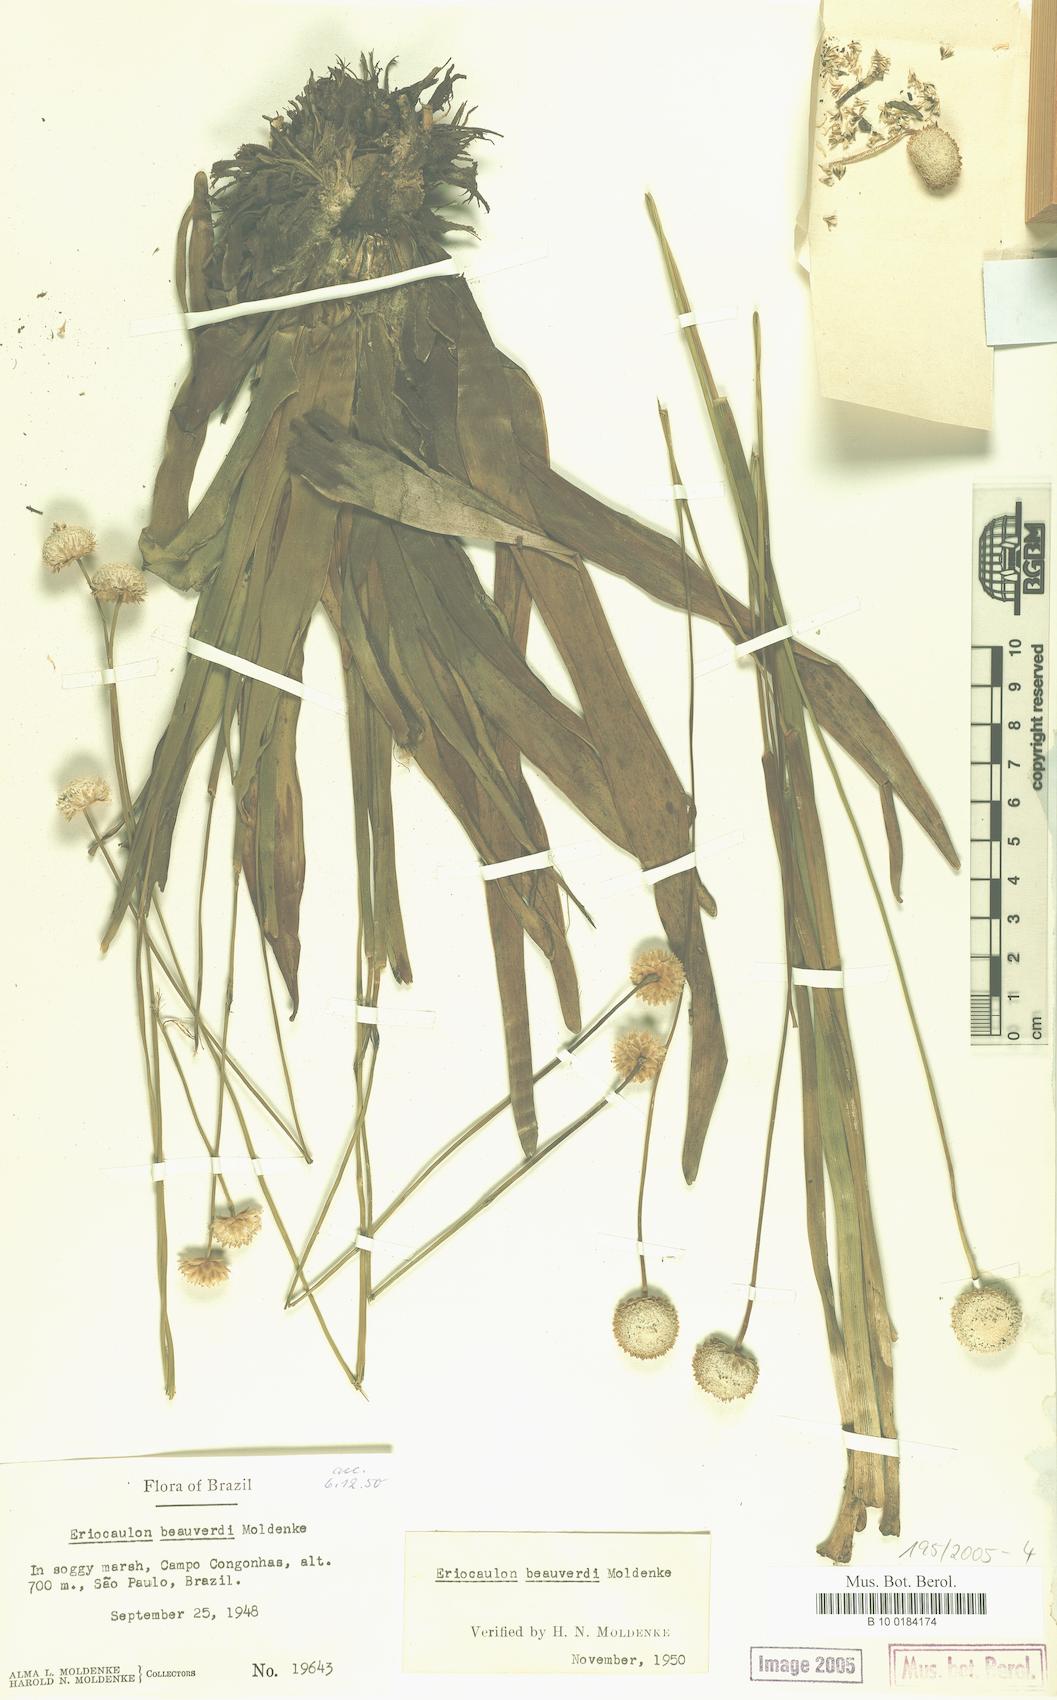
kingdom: Plantae
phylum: Tracheophyta
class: Liliopsida
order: Poales
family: Eriocaulaceae
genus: Eriocaulon
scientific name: Eriocaulon beauverdii
